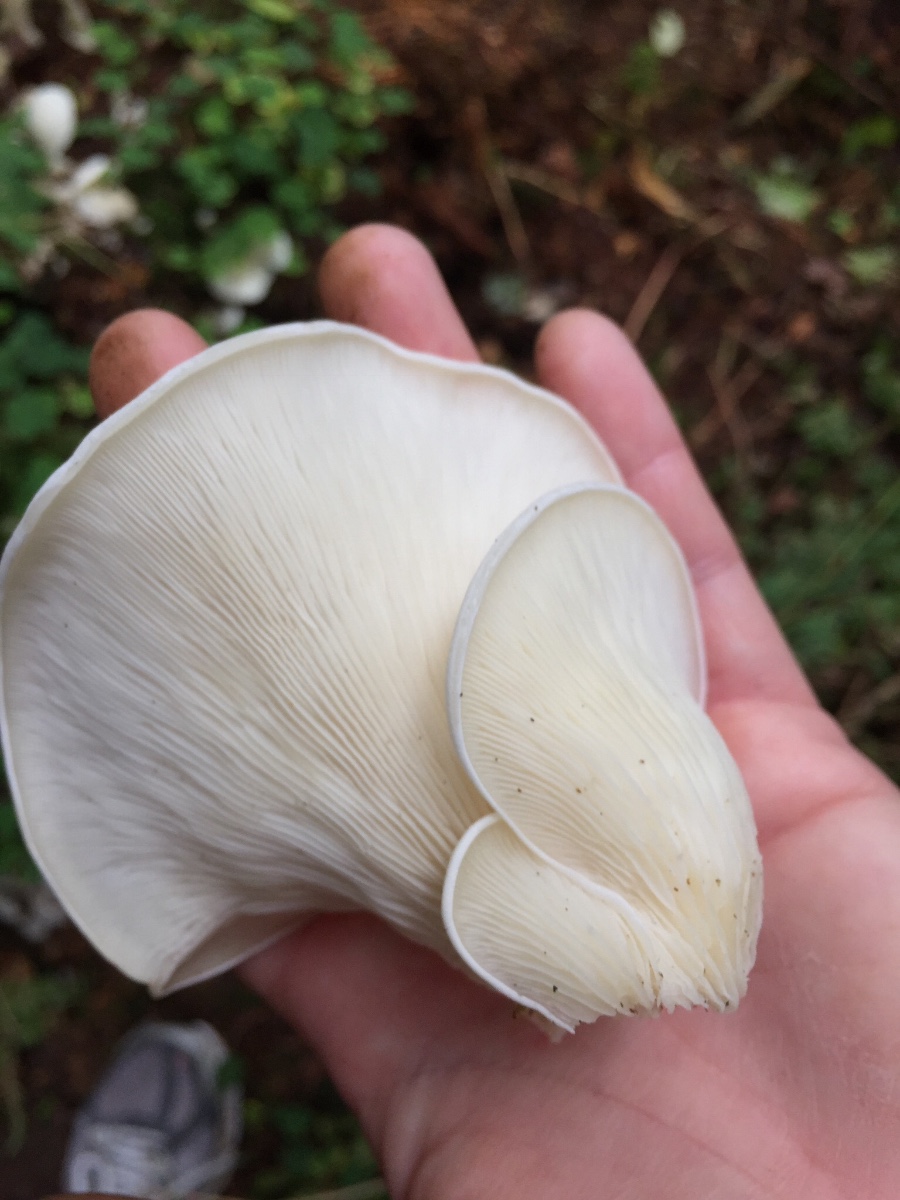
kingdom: Fungi
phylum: Basidiomycota
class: Agaricomycetes
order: Agaricales
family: Marasmiaceae
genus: Pleurocybella
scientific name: Pleurocybella porrigens
